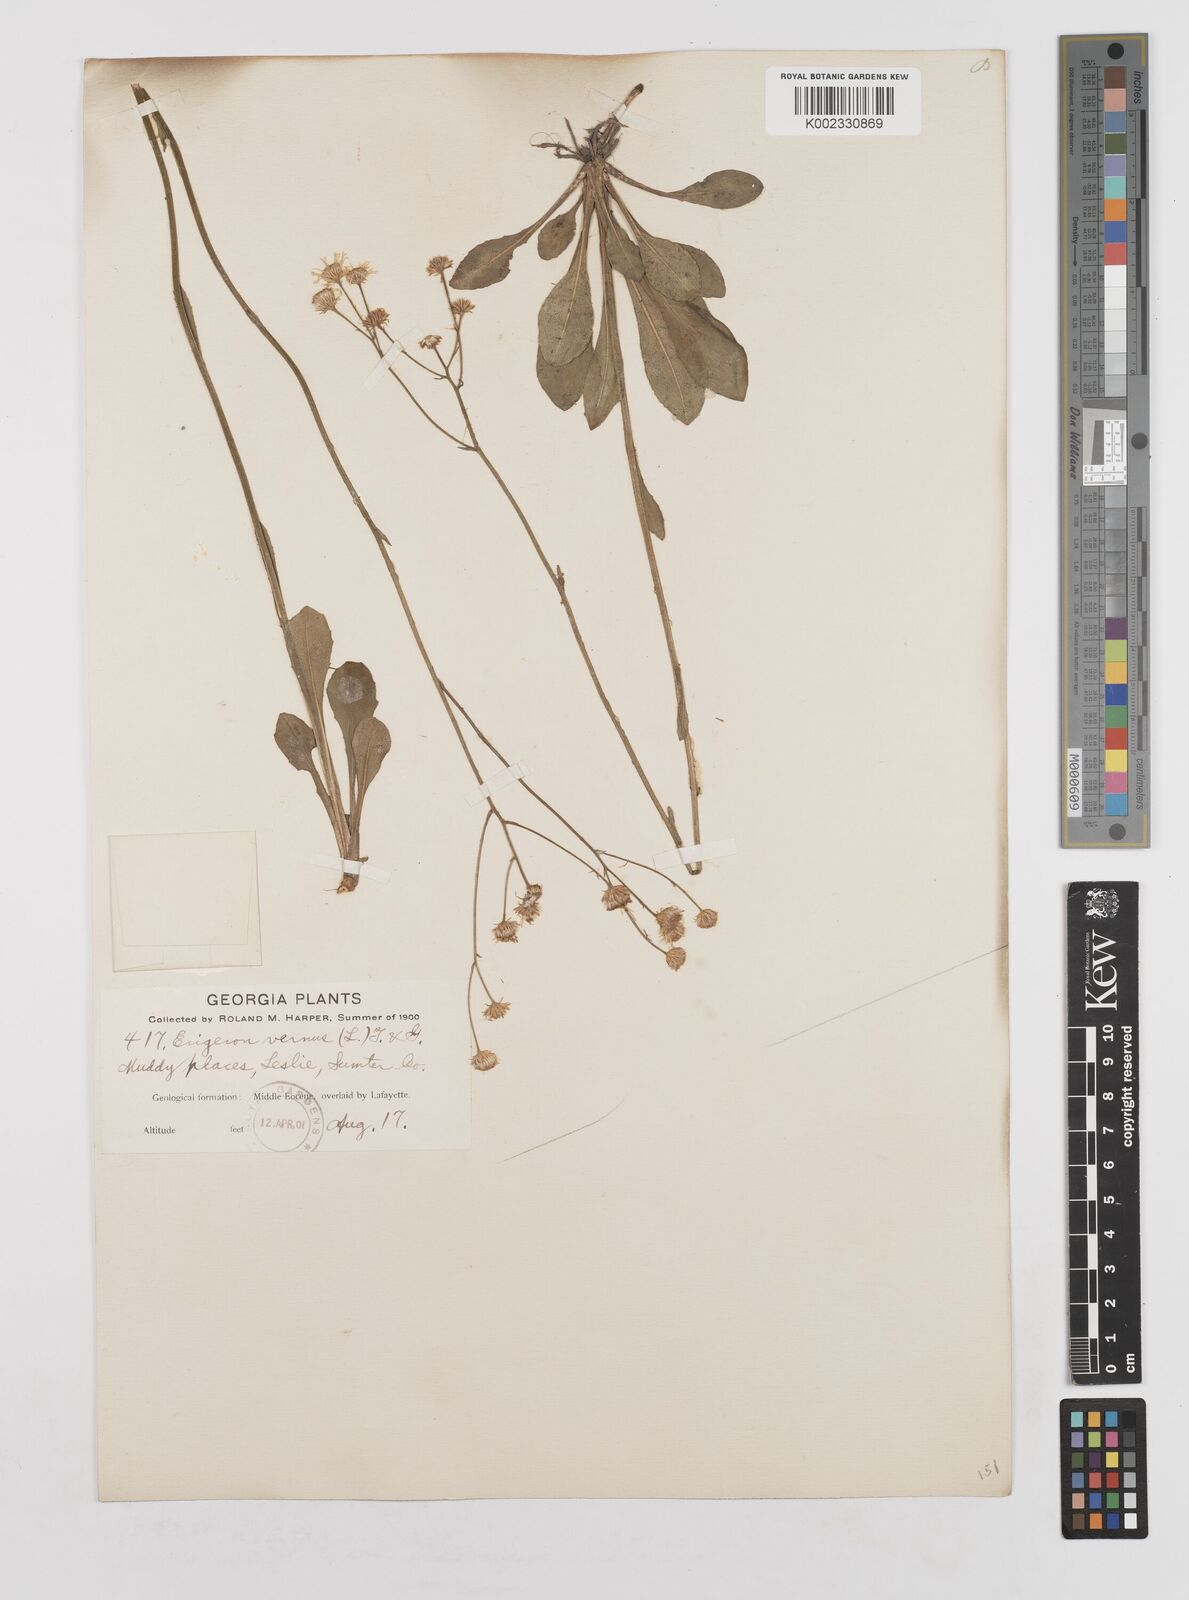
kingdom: Plantae
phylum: Tracheophyta
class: Magnoliopsida
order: Asterales
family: Asteraceae
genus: Erigeron
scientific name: Erigeron vernus
